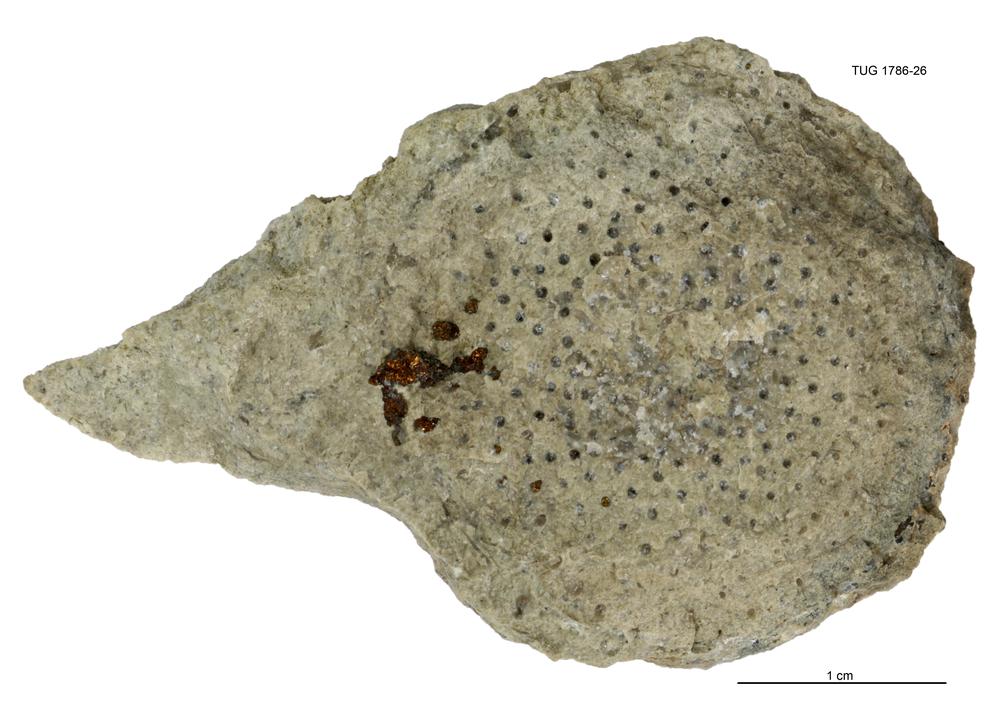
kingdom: Plantae
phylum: Chlorophyta
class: Chlorophyceae
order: Receptaculitales
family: Receptaculitaceae
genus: Receptaculites
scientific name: Receptaculites
